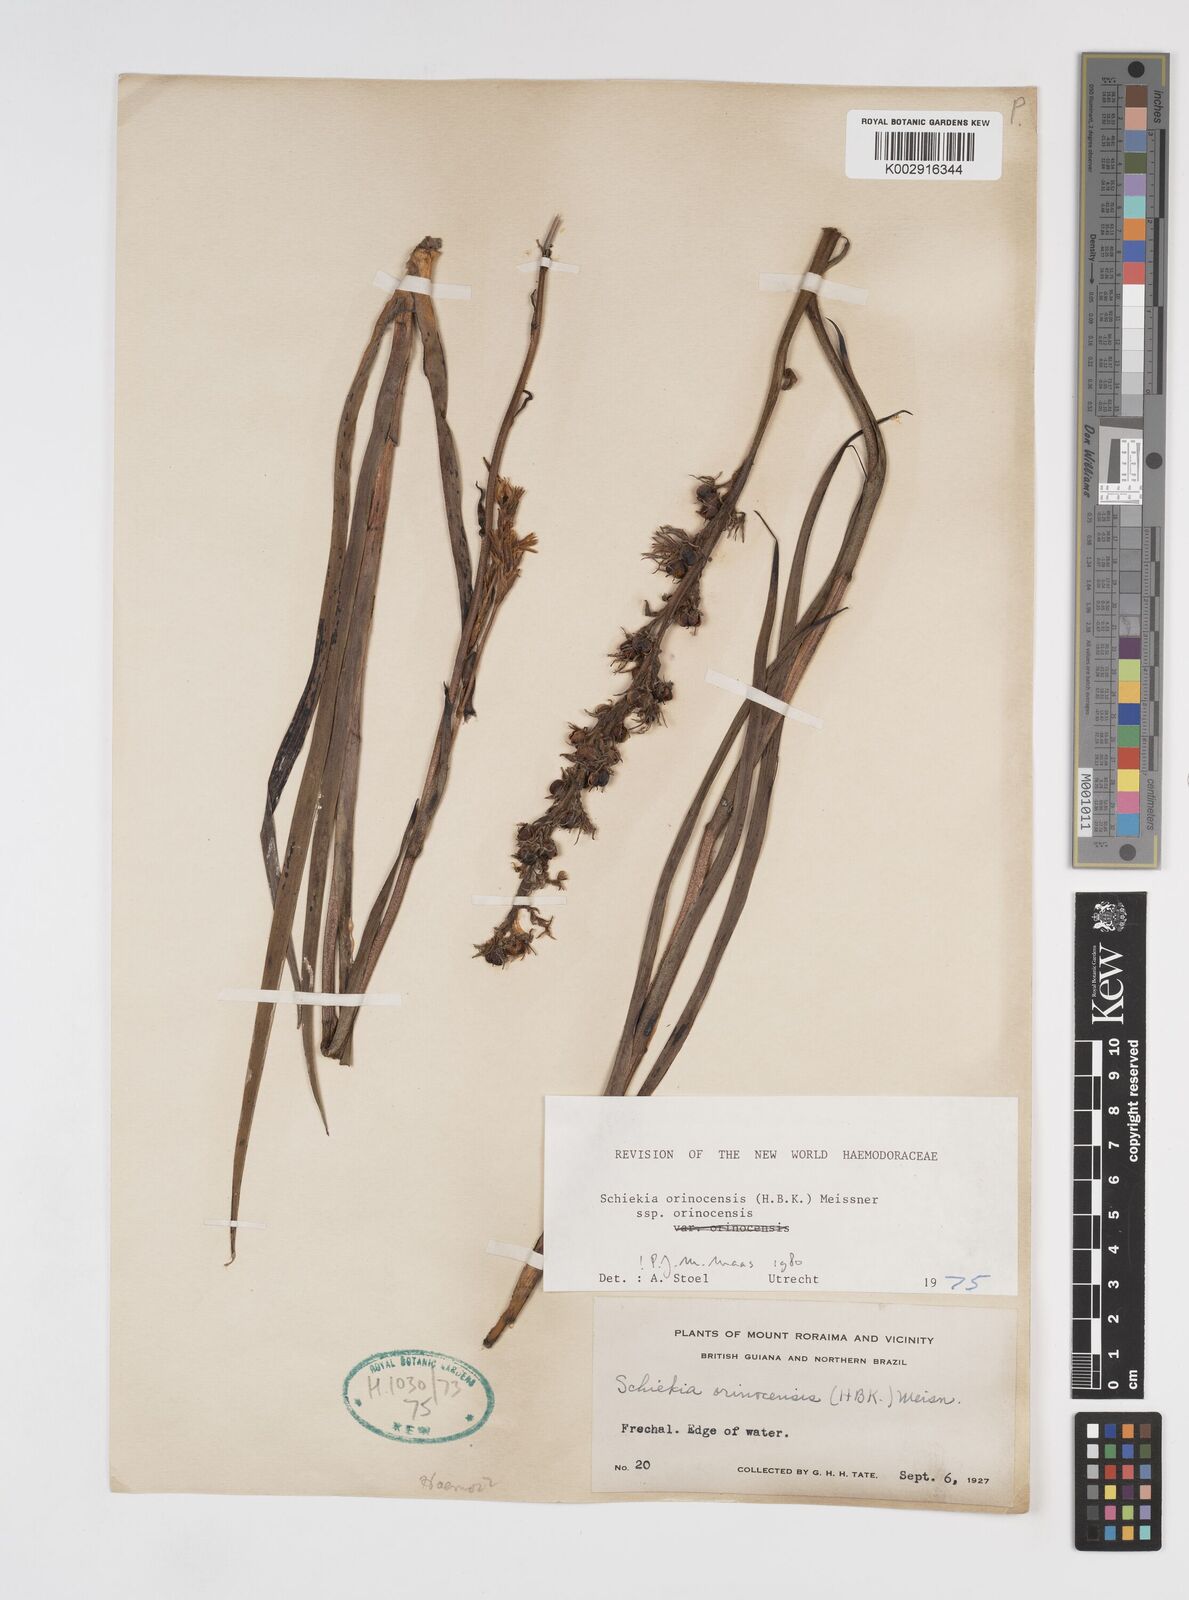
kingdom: Plantae
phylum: Tracheophyta
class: Liliopsida
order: Commelinales
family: Haemodoraceae
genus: Schiekia
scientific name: Schiekia orinocensis
